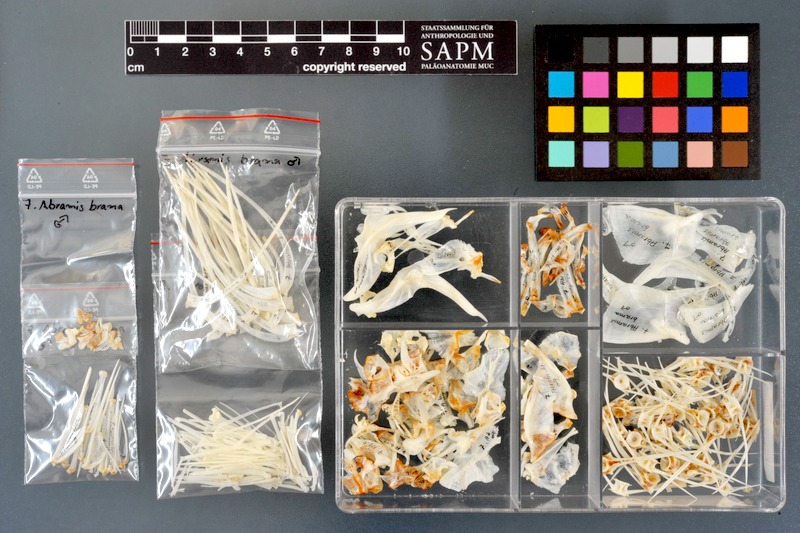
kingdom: Animalia
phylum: Chordata
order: Cypriniformes
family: Cyprinidae
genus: Abramis
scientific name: Abramis brama
